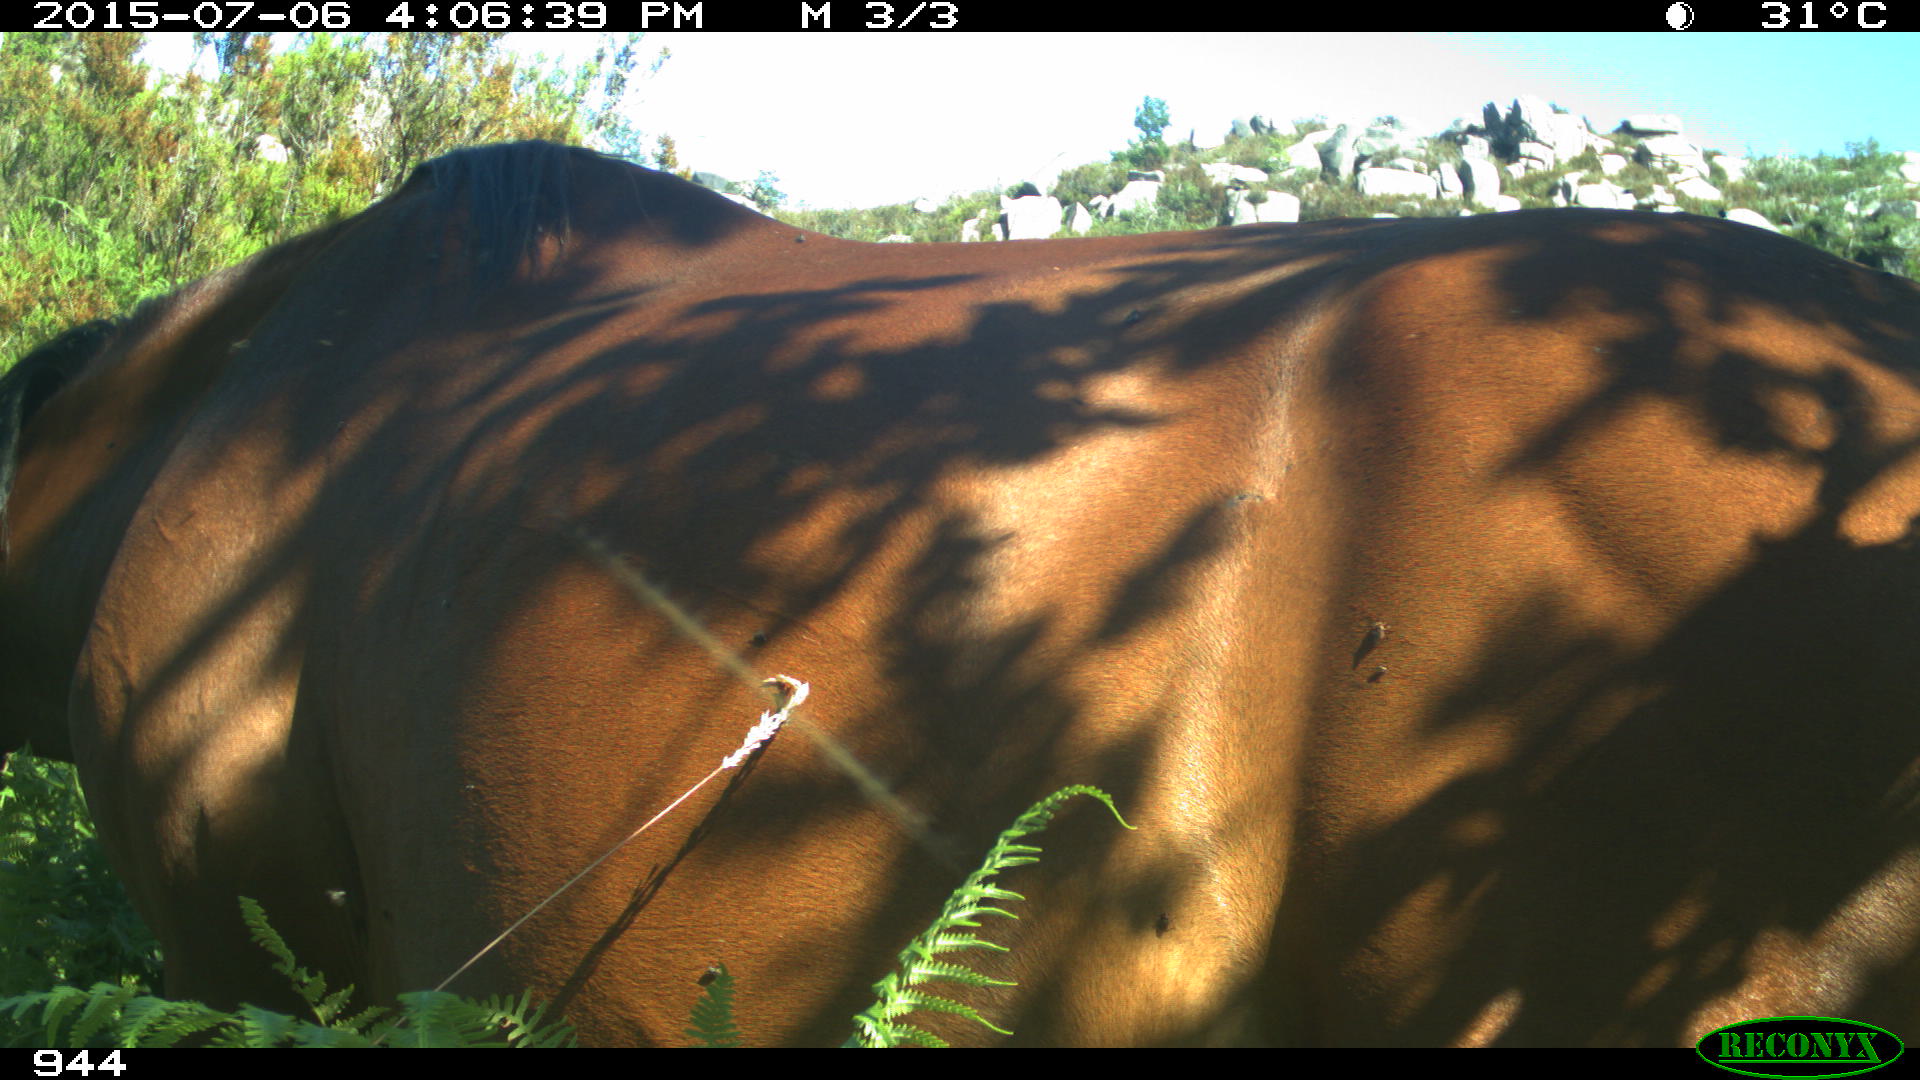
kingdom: Animalia
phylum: Chordata
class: Mammalia
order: Perissodactyla
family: Equidae
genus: Equus
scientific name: Equus caballus
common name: Horse
